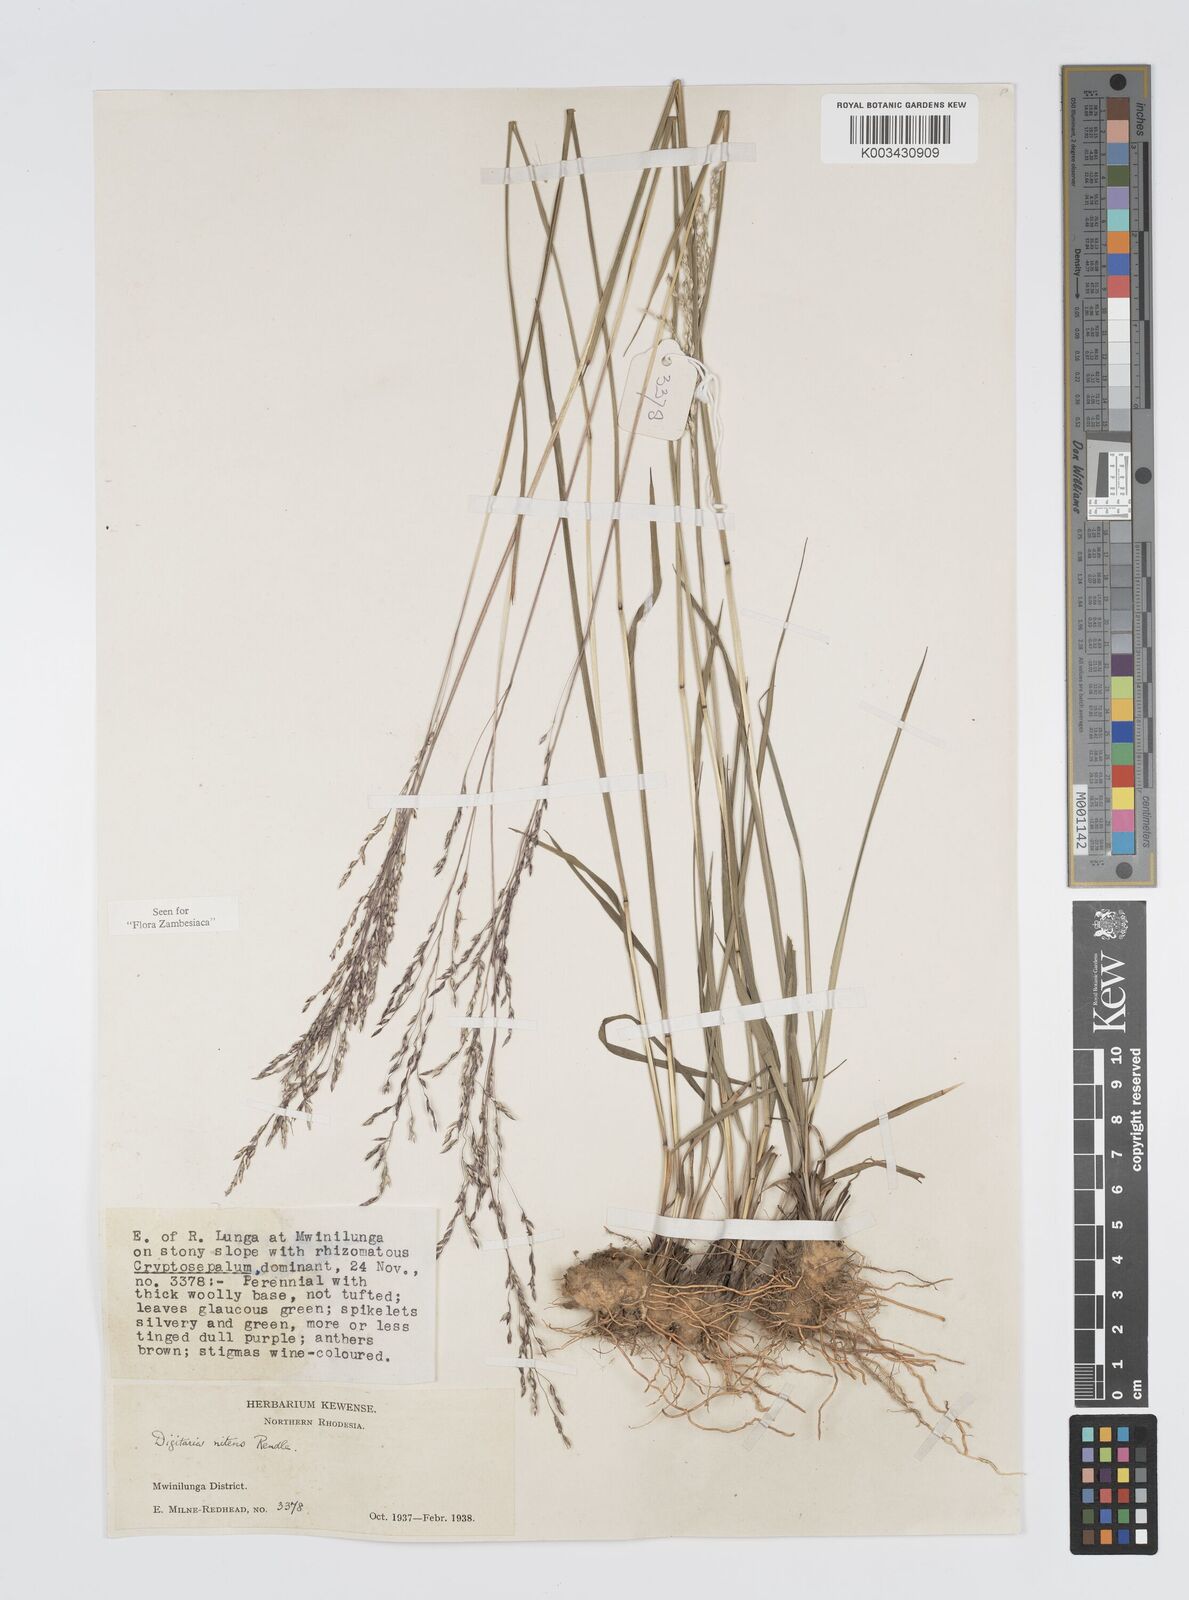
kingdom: Plantae
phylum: Tracheophyta
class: Liliopsida
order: Poales
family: Poaceae
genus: Digitaria
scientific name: Digitaria flaccida
